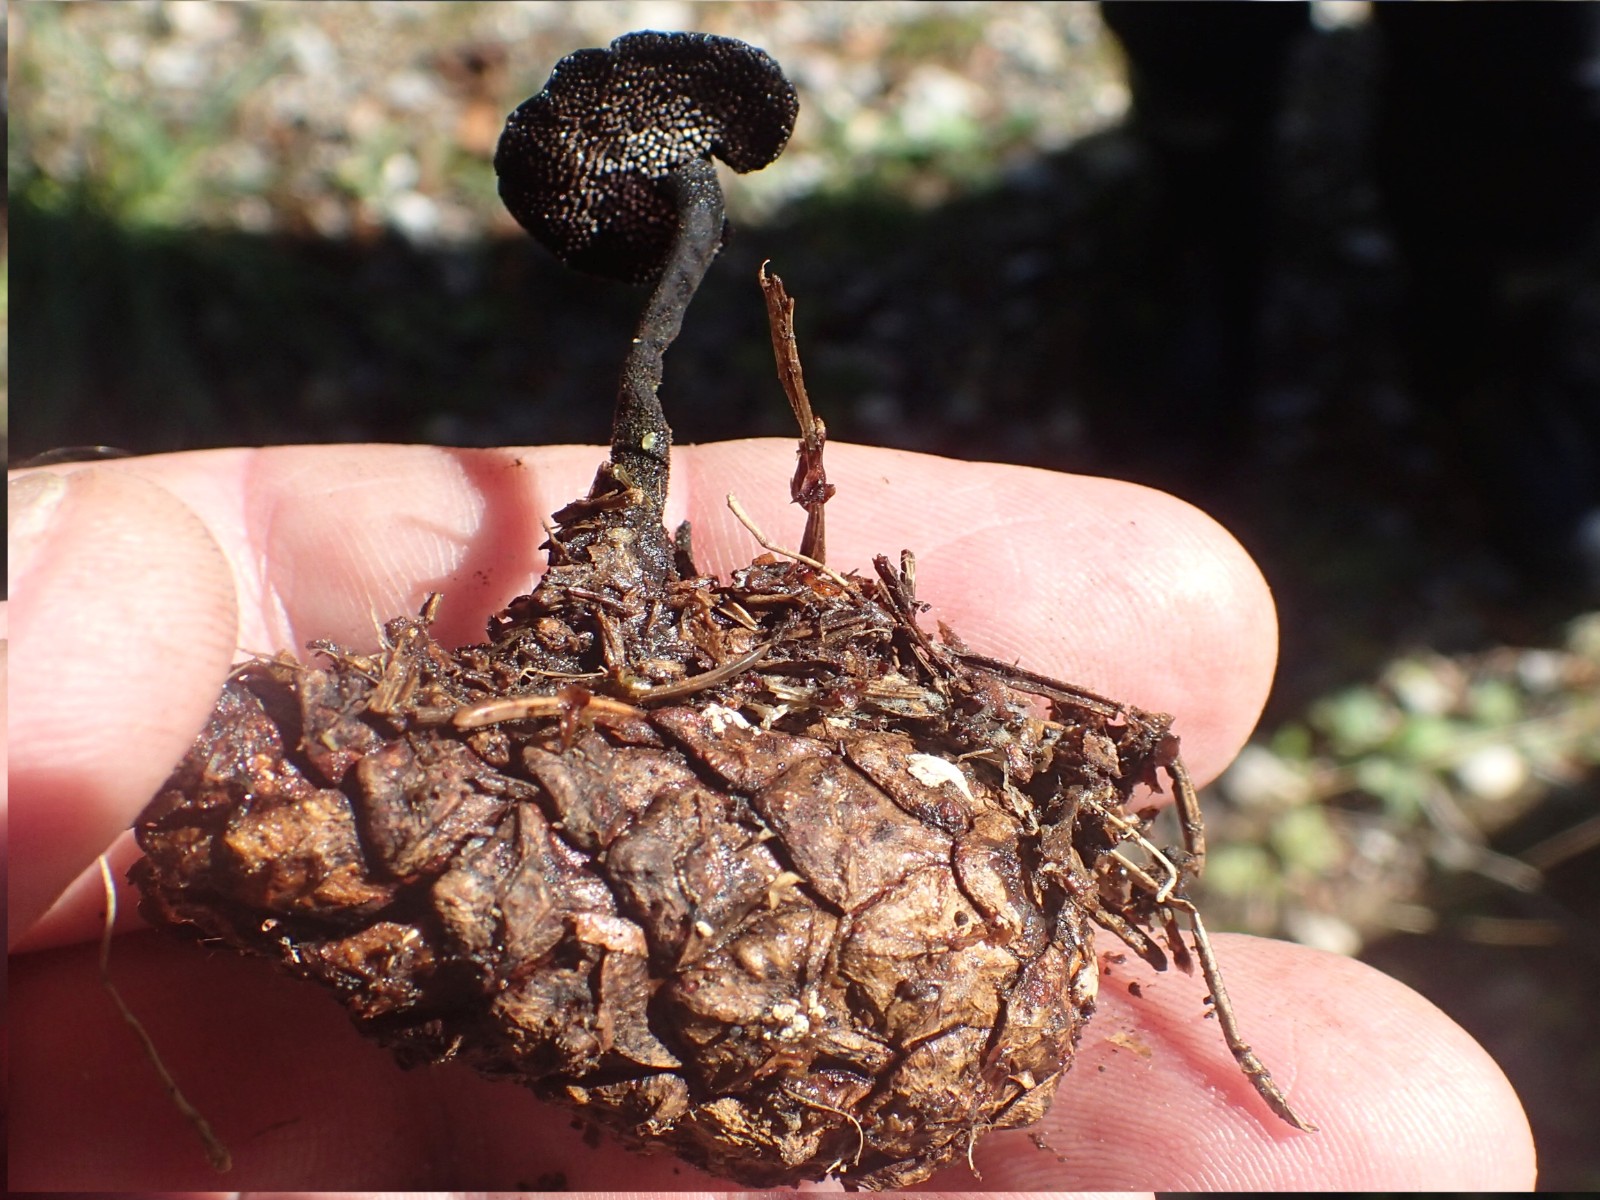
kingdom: Fungi
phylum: Basidiomycota
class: Agaricomycetes
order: Russulales
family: Auriscalpiaceae
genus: Auriscalpium
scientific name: Auriscalpium vulgare
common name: koglepigsvamp
